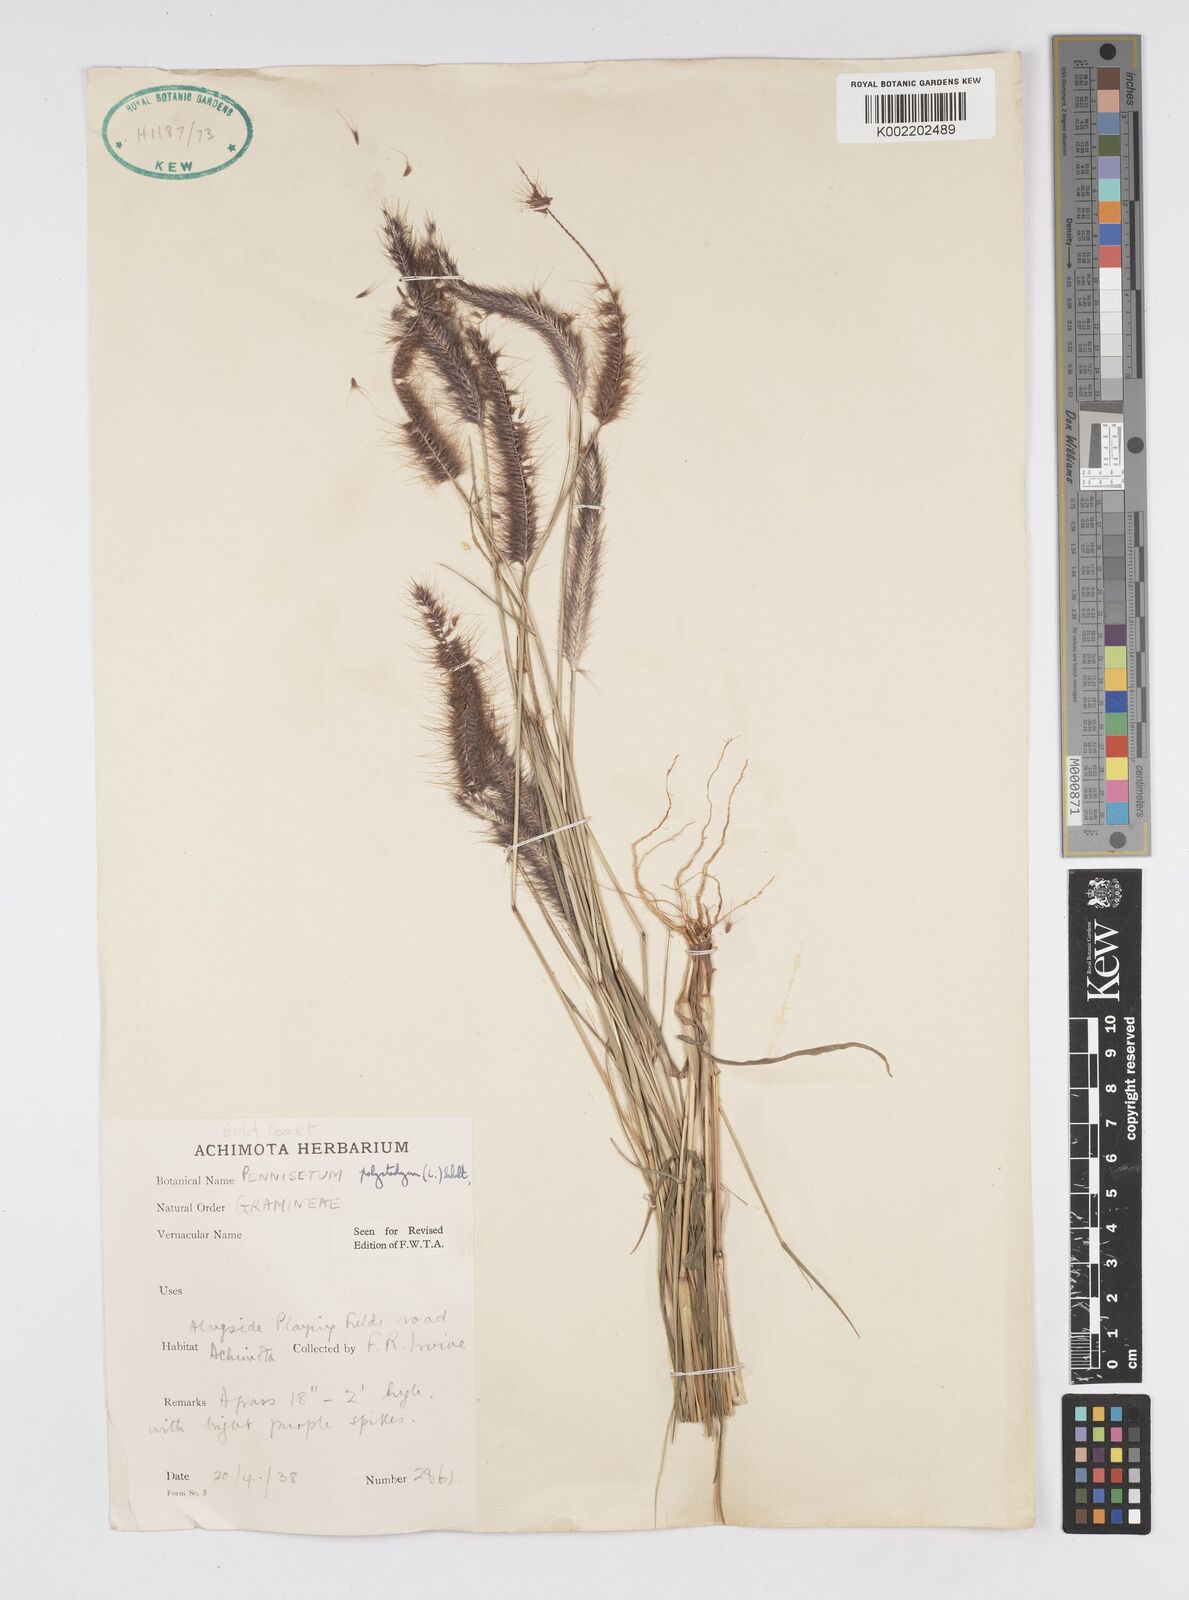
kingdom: Plantae
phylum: Tracheophyta
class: Liliopsida
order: Poales
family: Poaceae
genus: Setaria
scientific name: Setaria parviflora
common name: Knotroot bristle-grass
